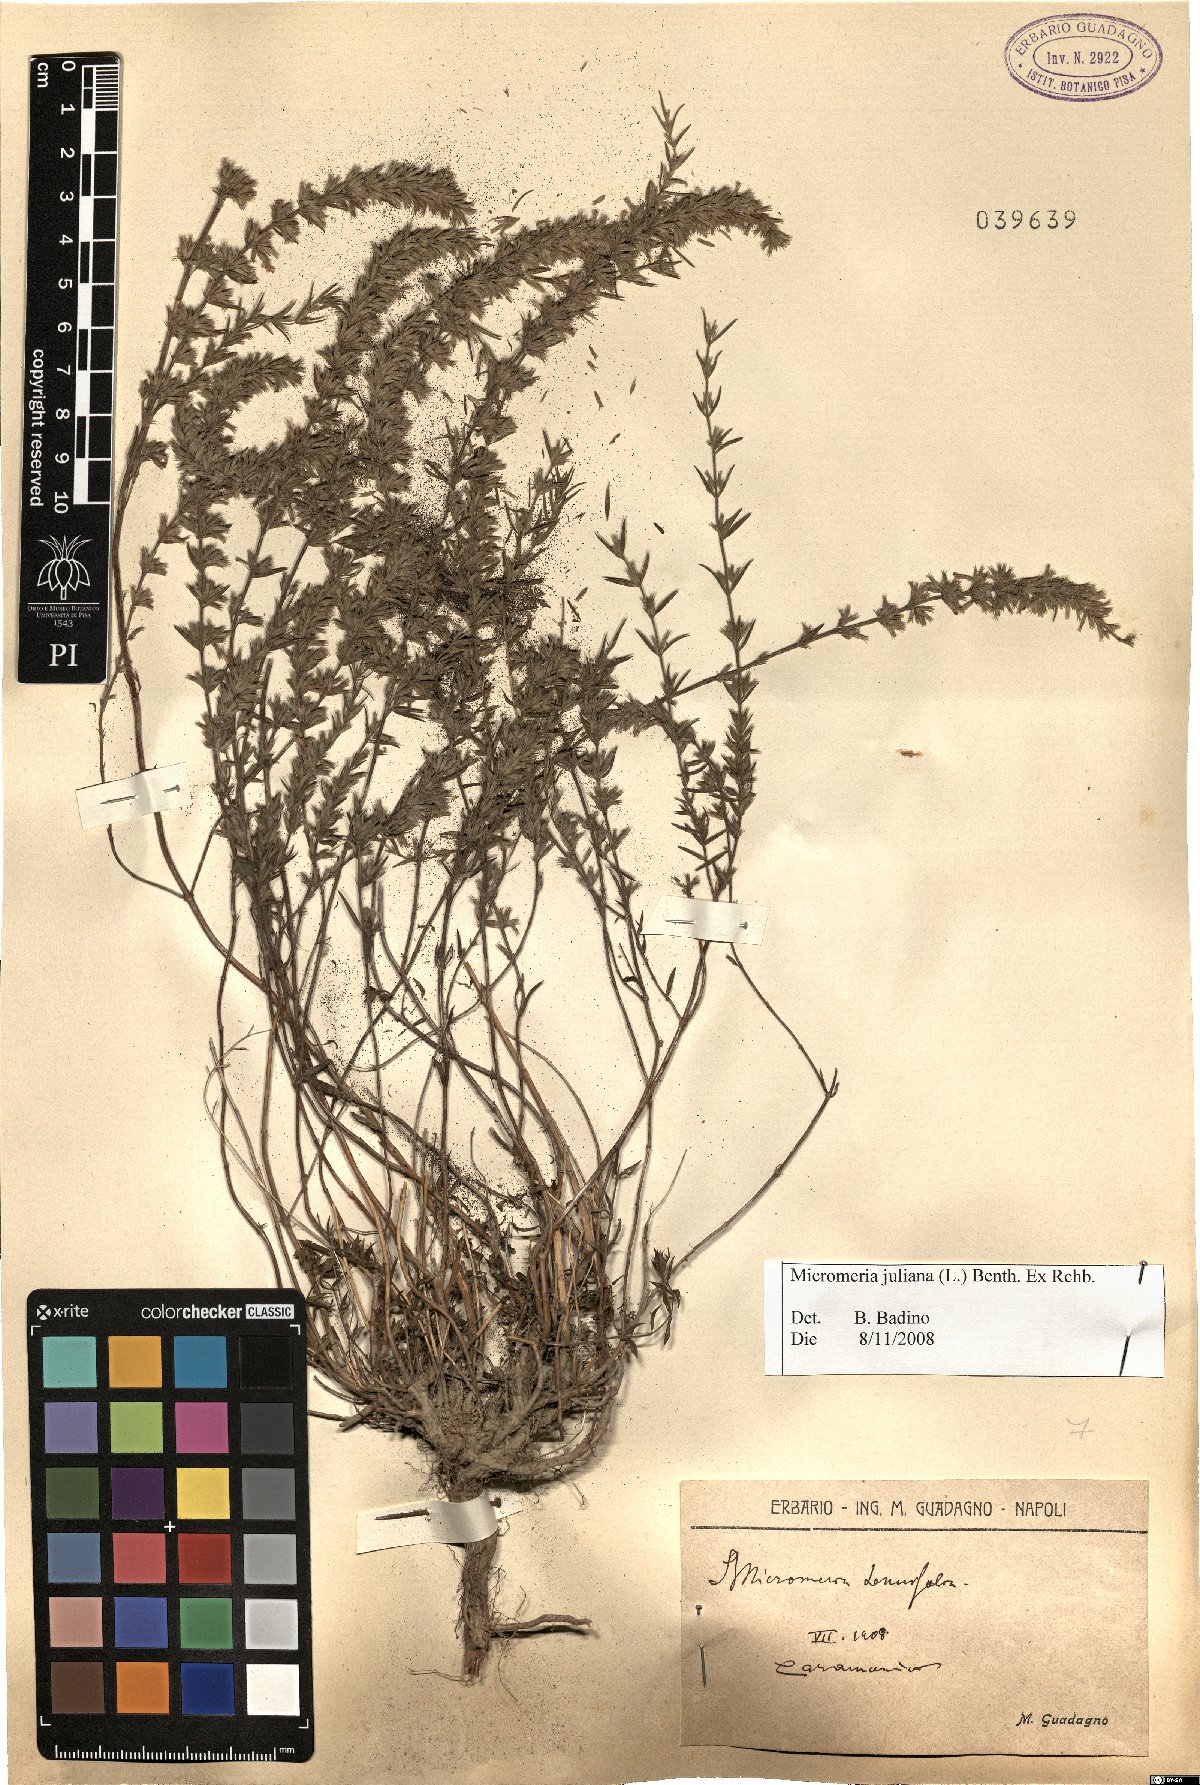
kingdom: Plantae
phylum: Tracheophyta
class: Magnoliopsida
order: Lamiales
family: Lamiaceae
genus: Micromeria
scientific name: Micromeria juliana
